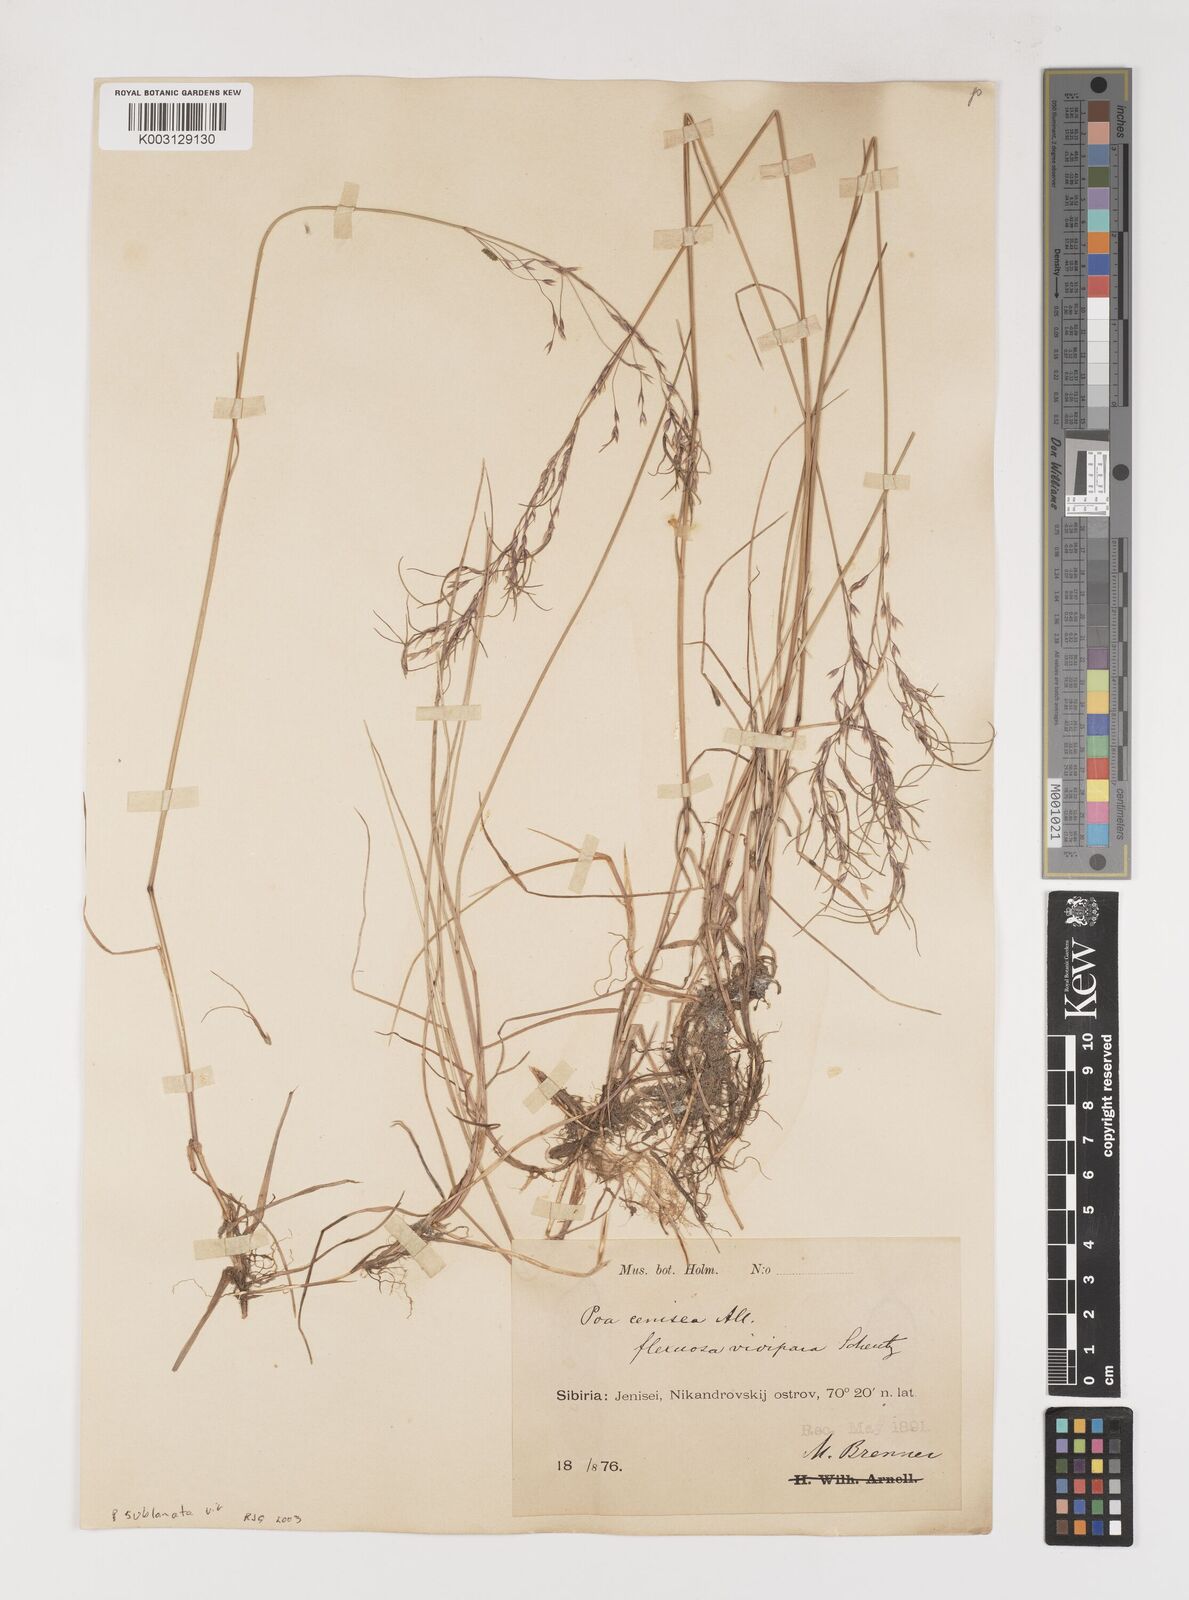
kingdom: Plantae
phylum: Tracheophyta
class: Liliopsida
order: Poales
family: Poaceae
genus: Poa
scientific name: Poa arctica
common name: Arctic bluegrass
